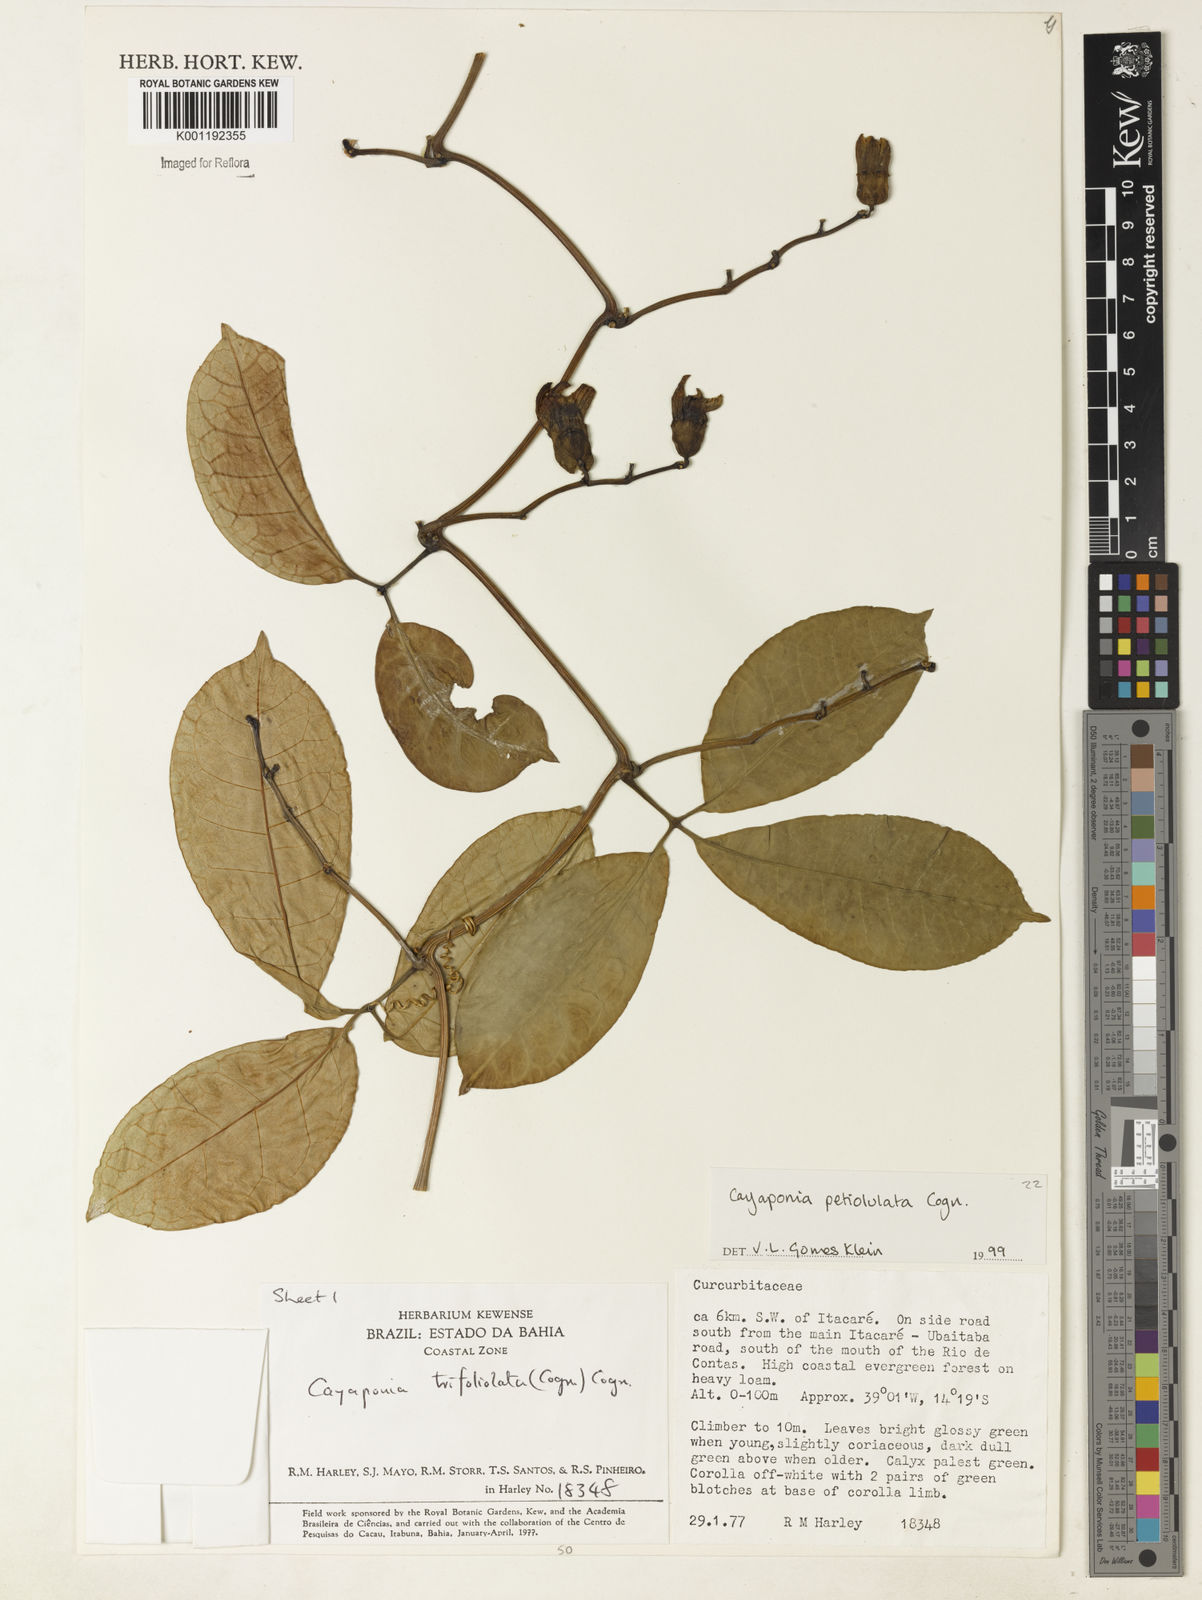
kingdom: Plantae
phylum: Tracheophyta
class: Magnoliopsida
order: Cucurbitales
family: Cucurbitaceae
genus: Cayaponia
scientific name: Cayaponia petiolulata
